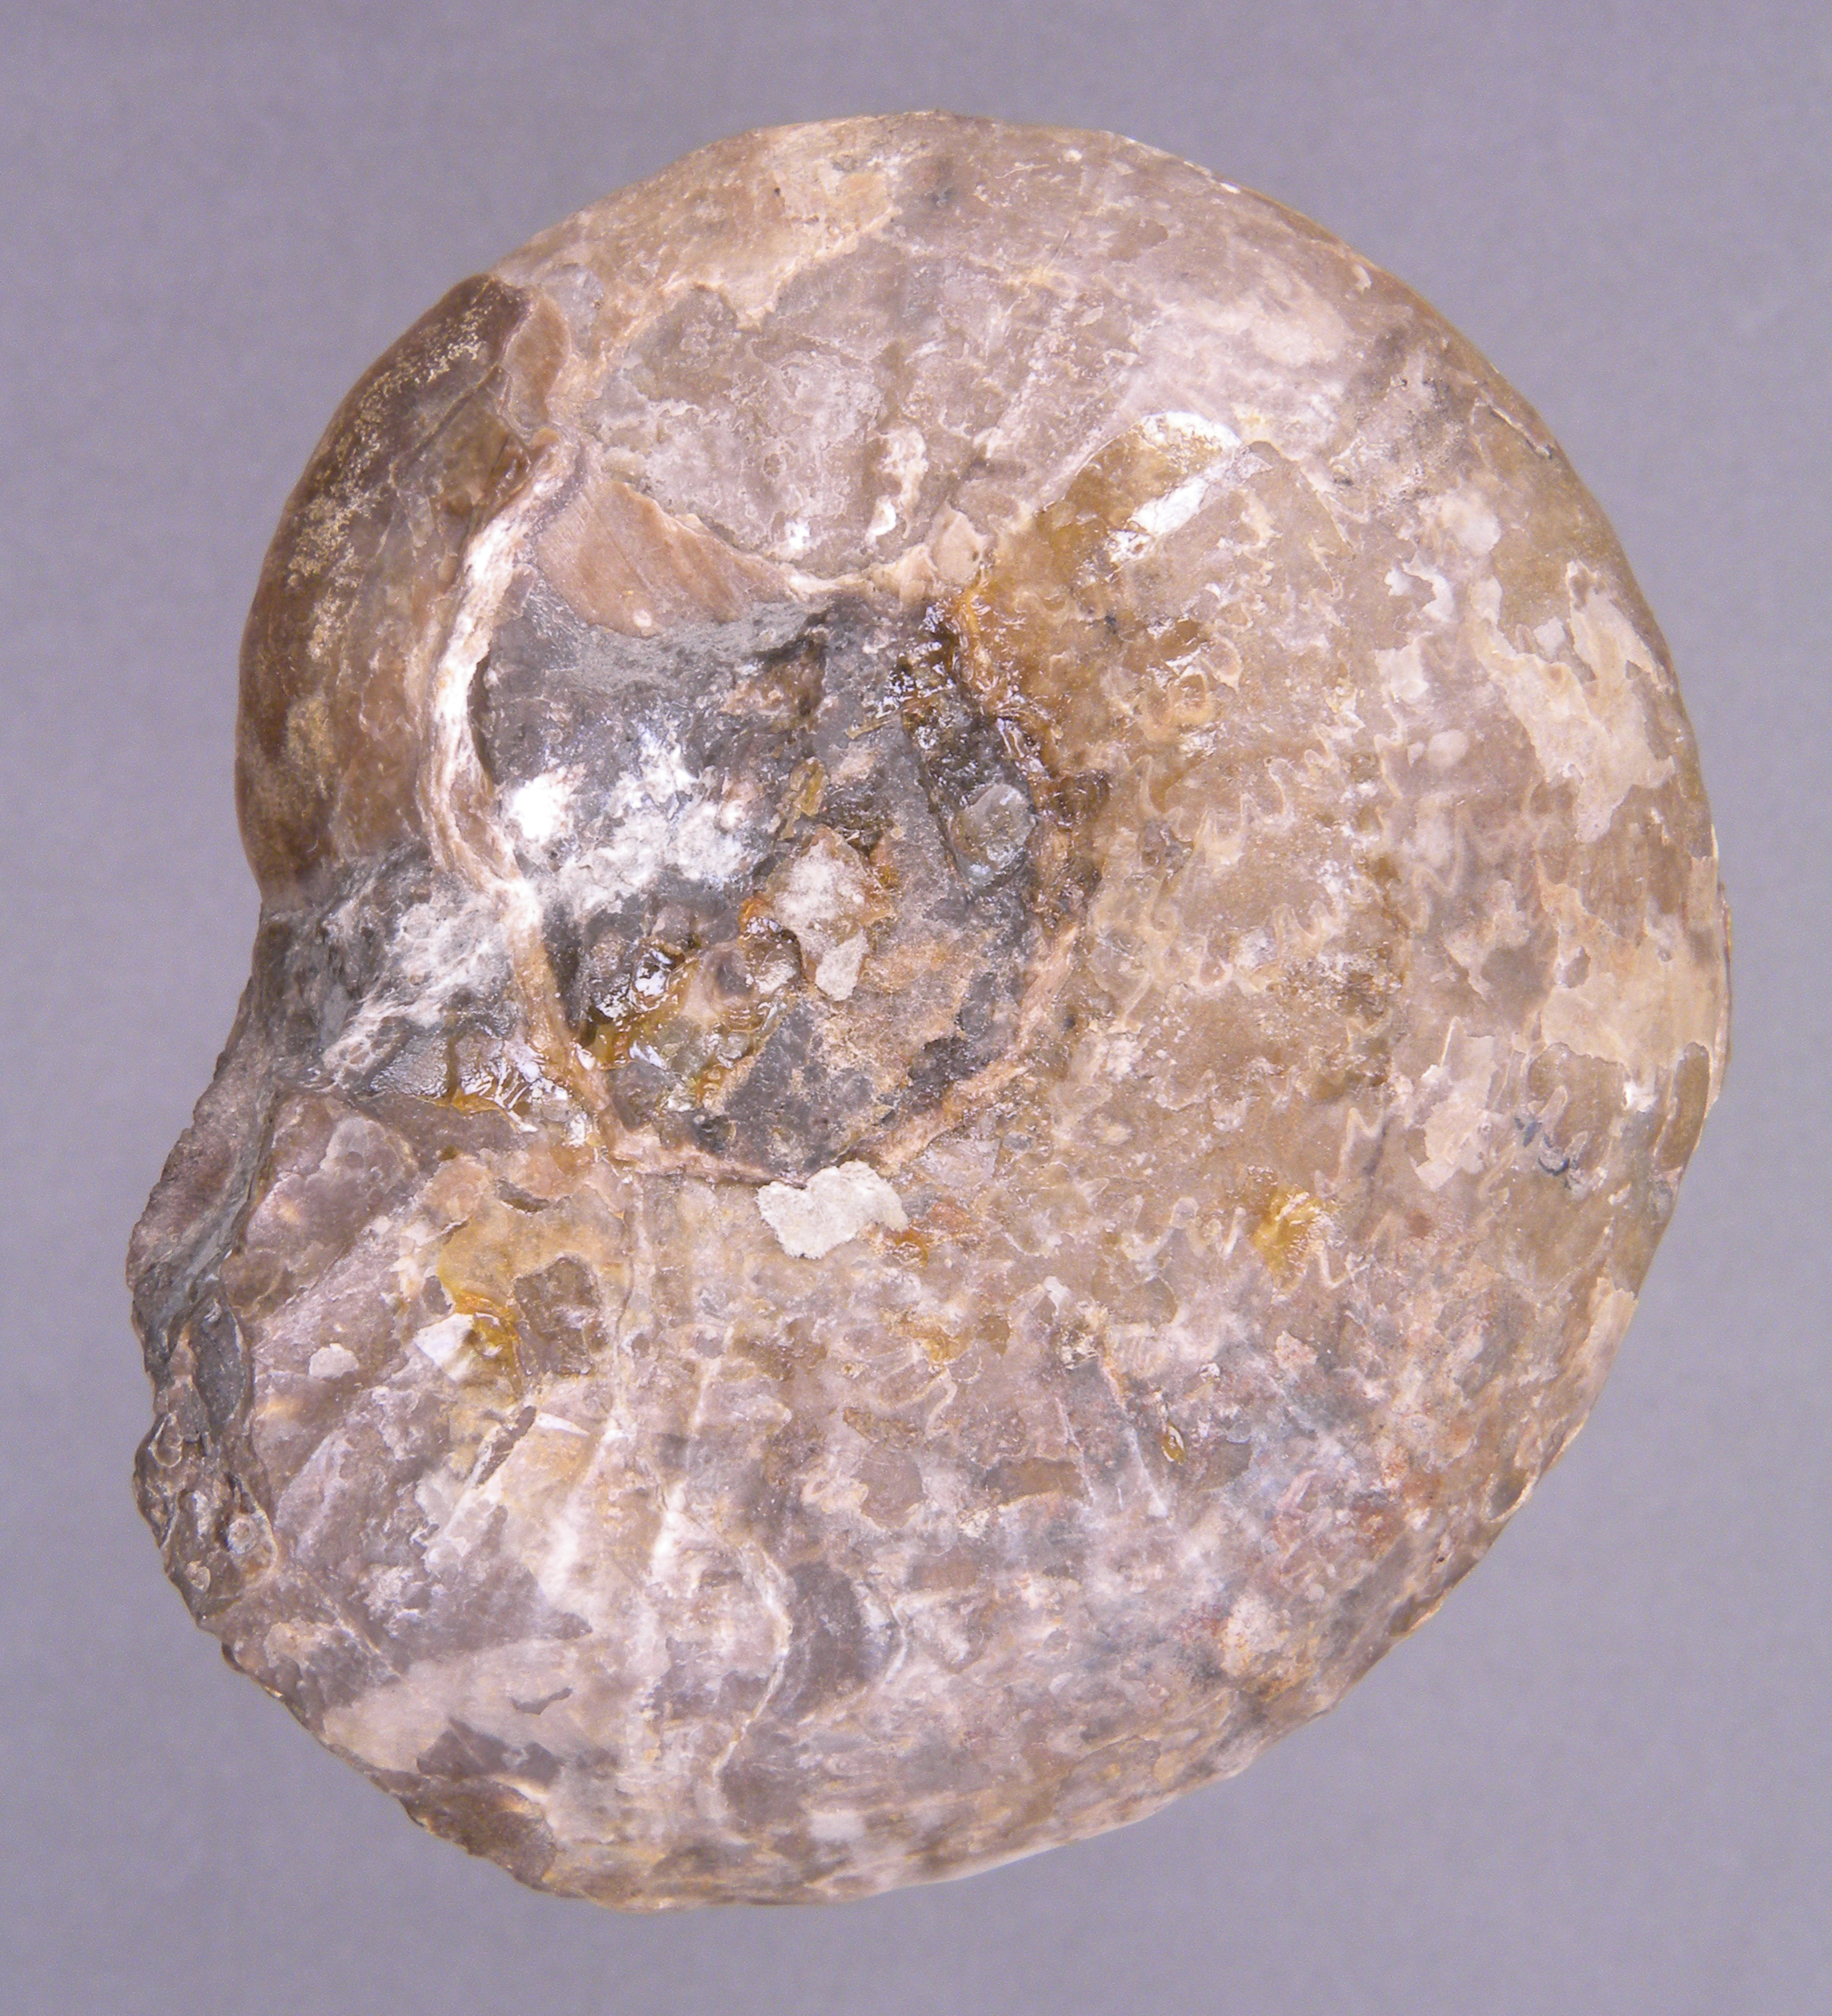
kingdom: Animalia
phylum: Mollusca
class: Cephalopoda
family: Hildoceratidae
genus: Frechiella
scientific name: Frechiella subcarinata
